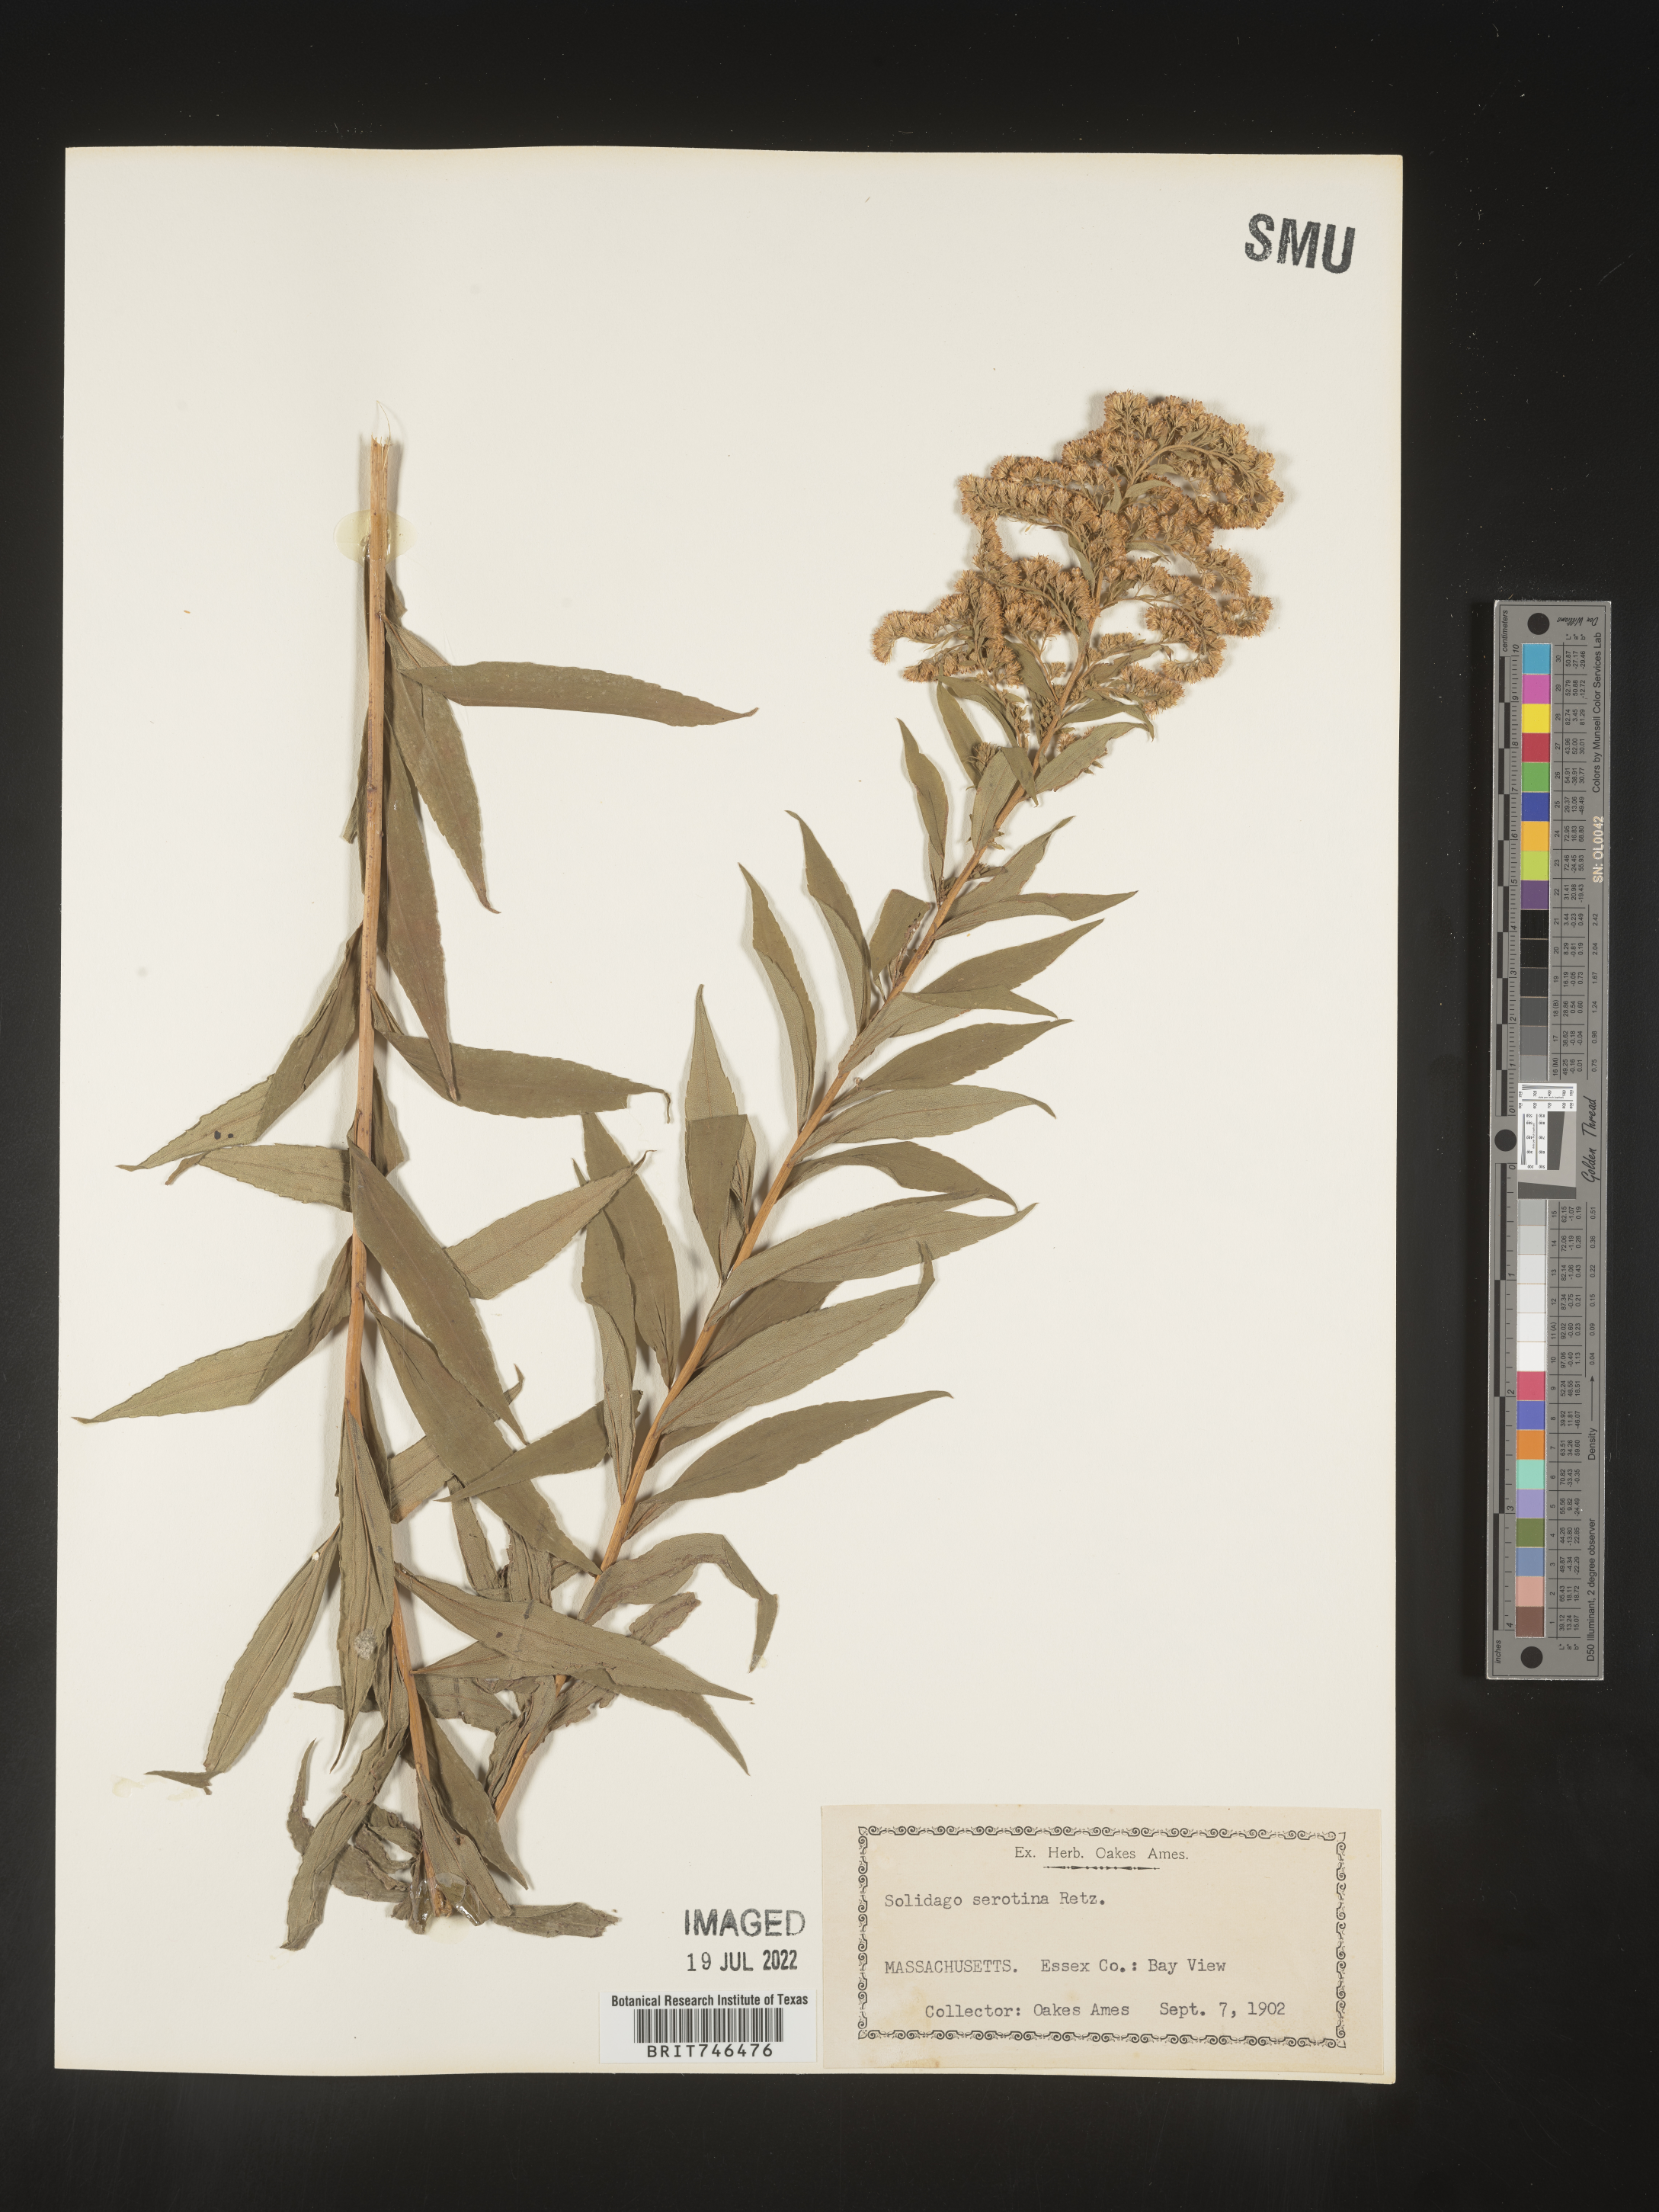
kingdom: Plantae
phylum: Tracheophyta
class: Magnoliopsida
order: Asterales
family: Asteraceae
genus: Solidago
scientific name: Solidago gigantea
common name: Giant goldenrod
